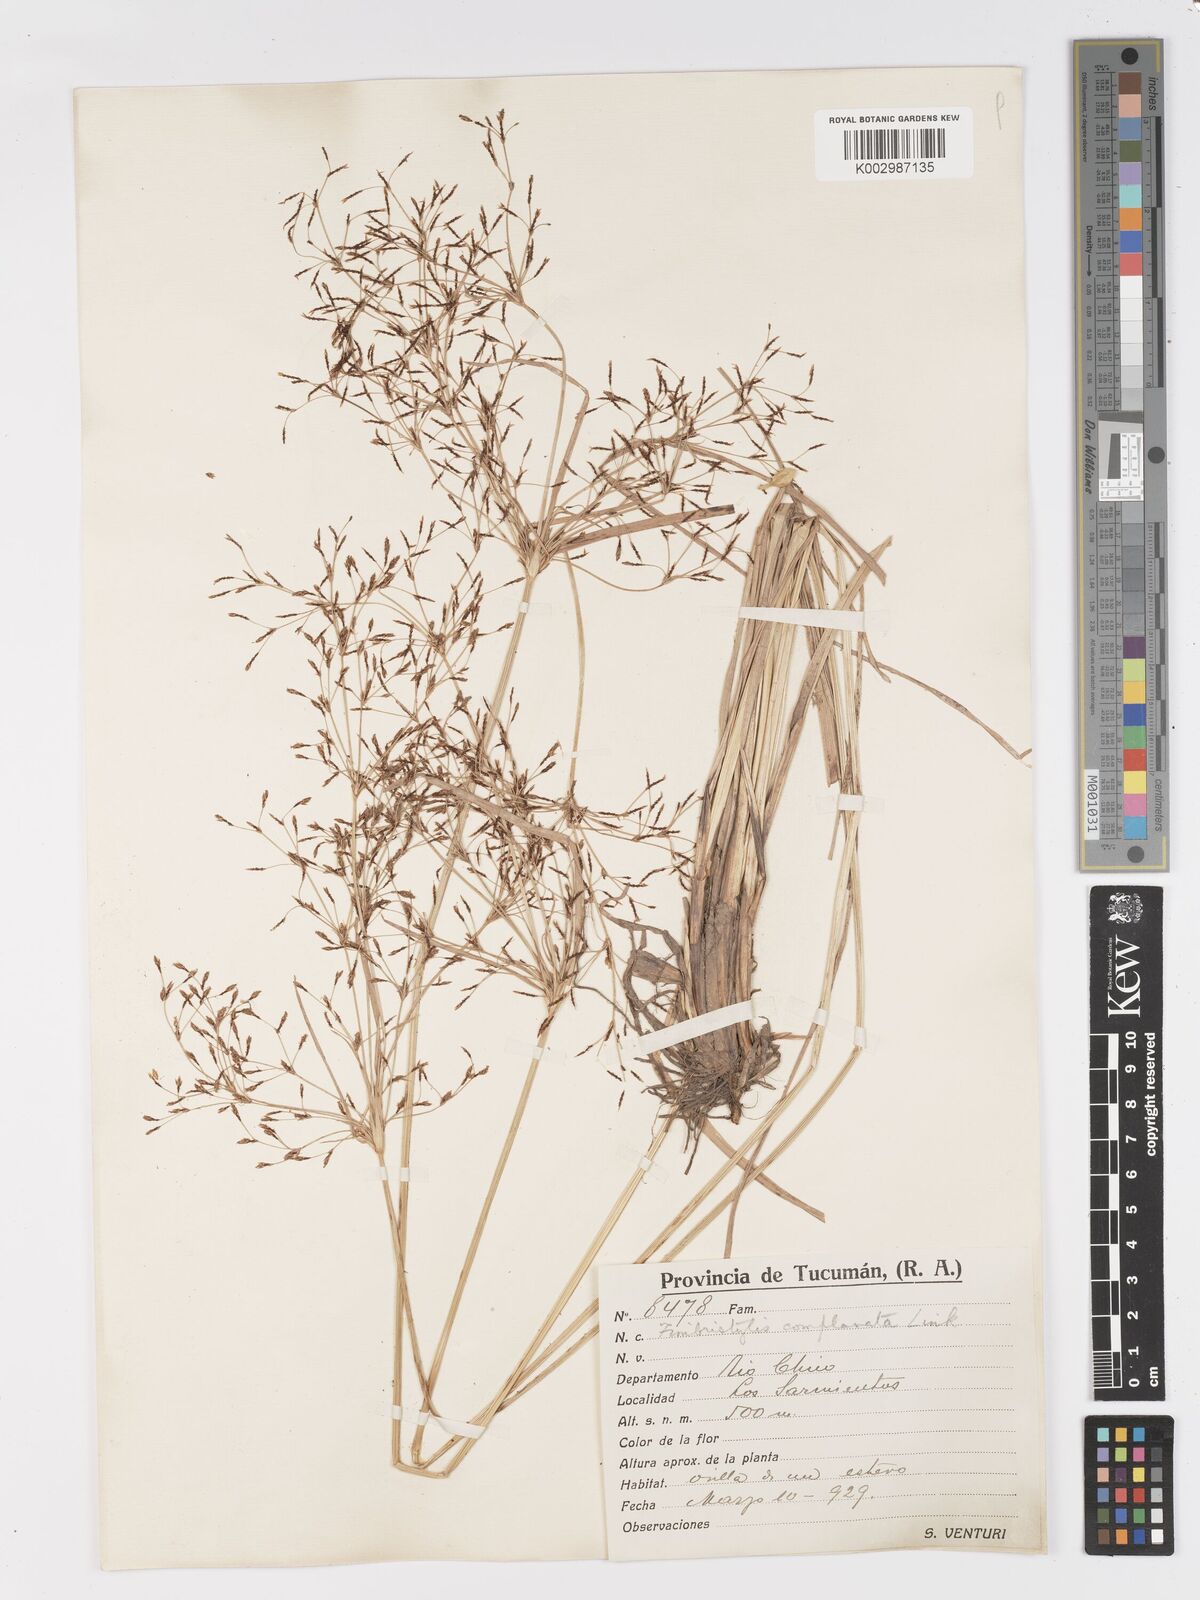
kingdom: Plantae
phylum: Tracheophyta
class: Liliopsida
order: Poales
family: Cyperaceae
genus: Fimbristylis
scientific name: Fimbristylis complanata
